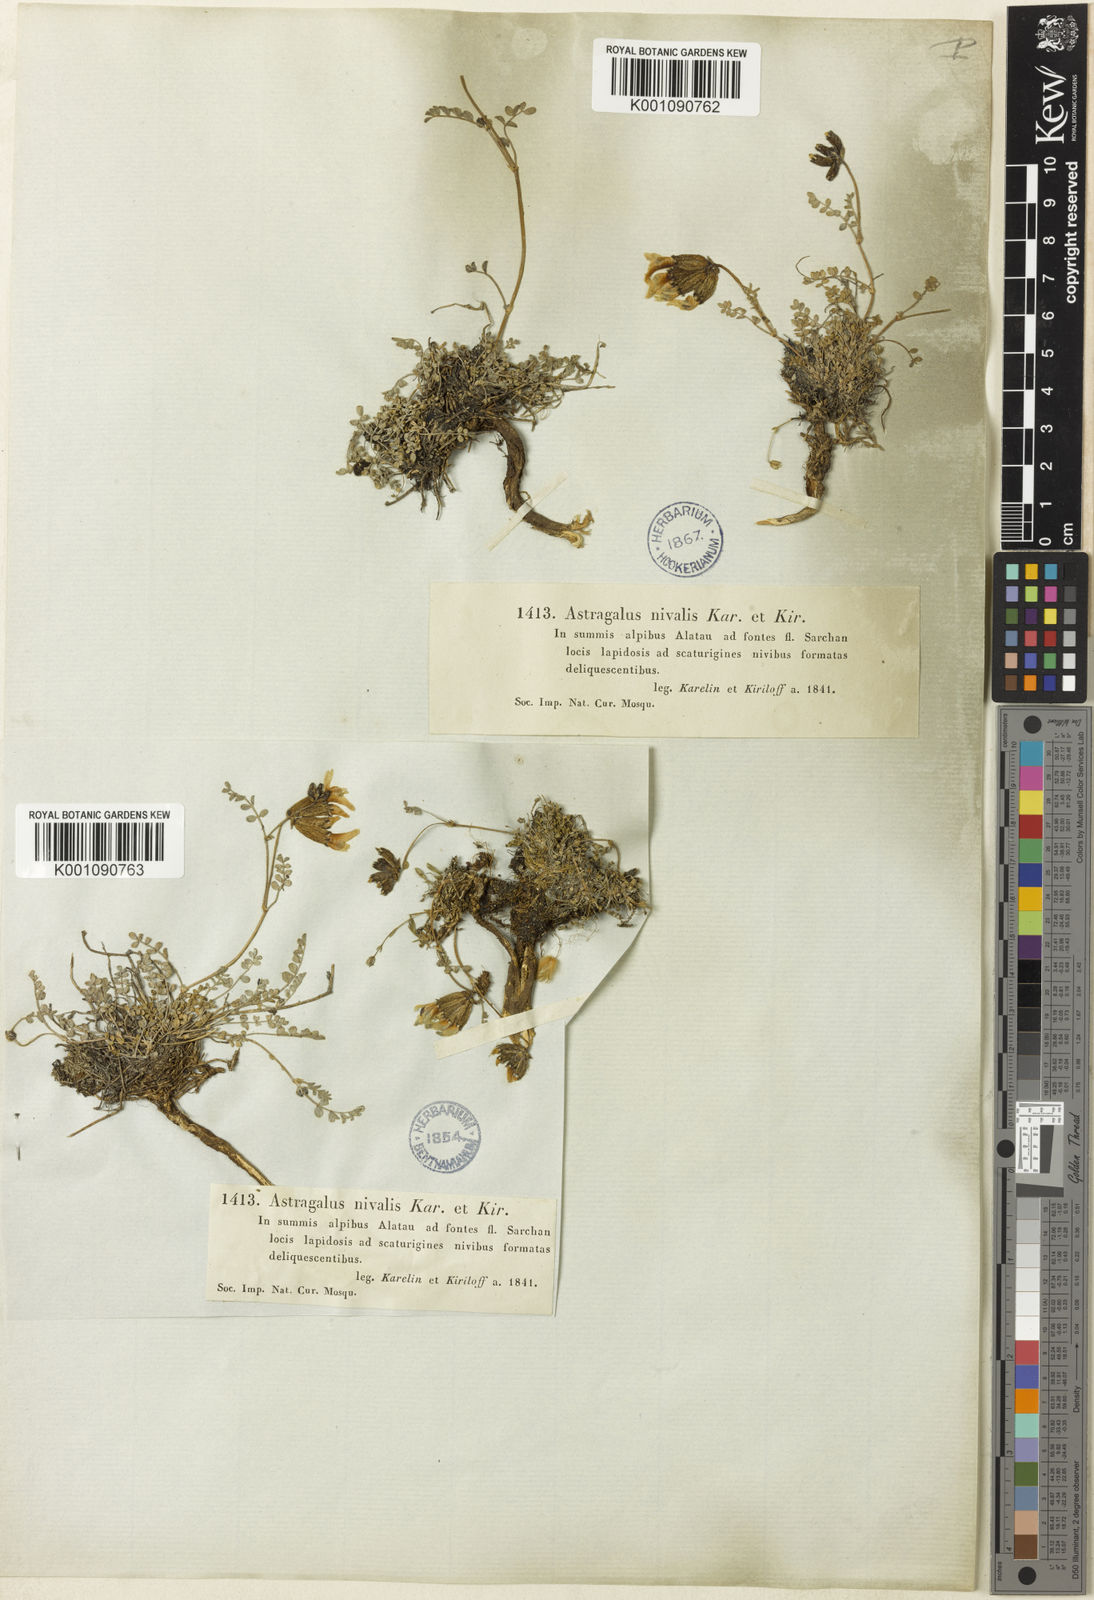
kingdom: Plantae
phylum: Tracheophyta
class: Magnoliopsida
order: Fabales
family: Fabaceae
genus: Astragalus
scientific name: Astragalus
